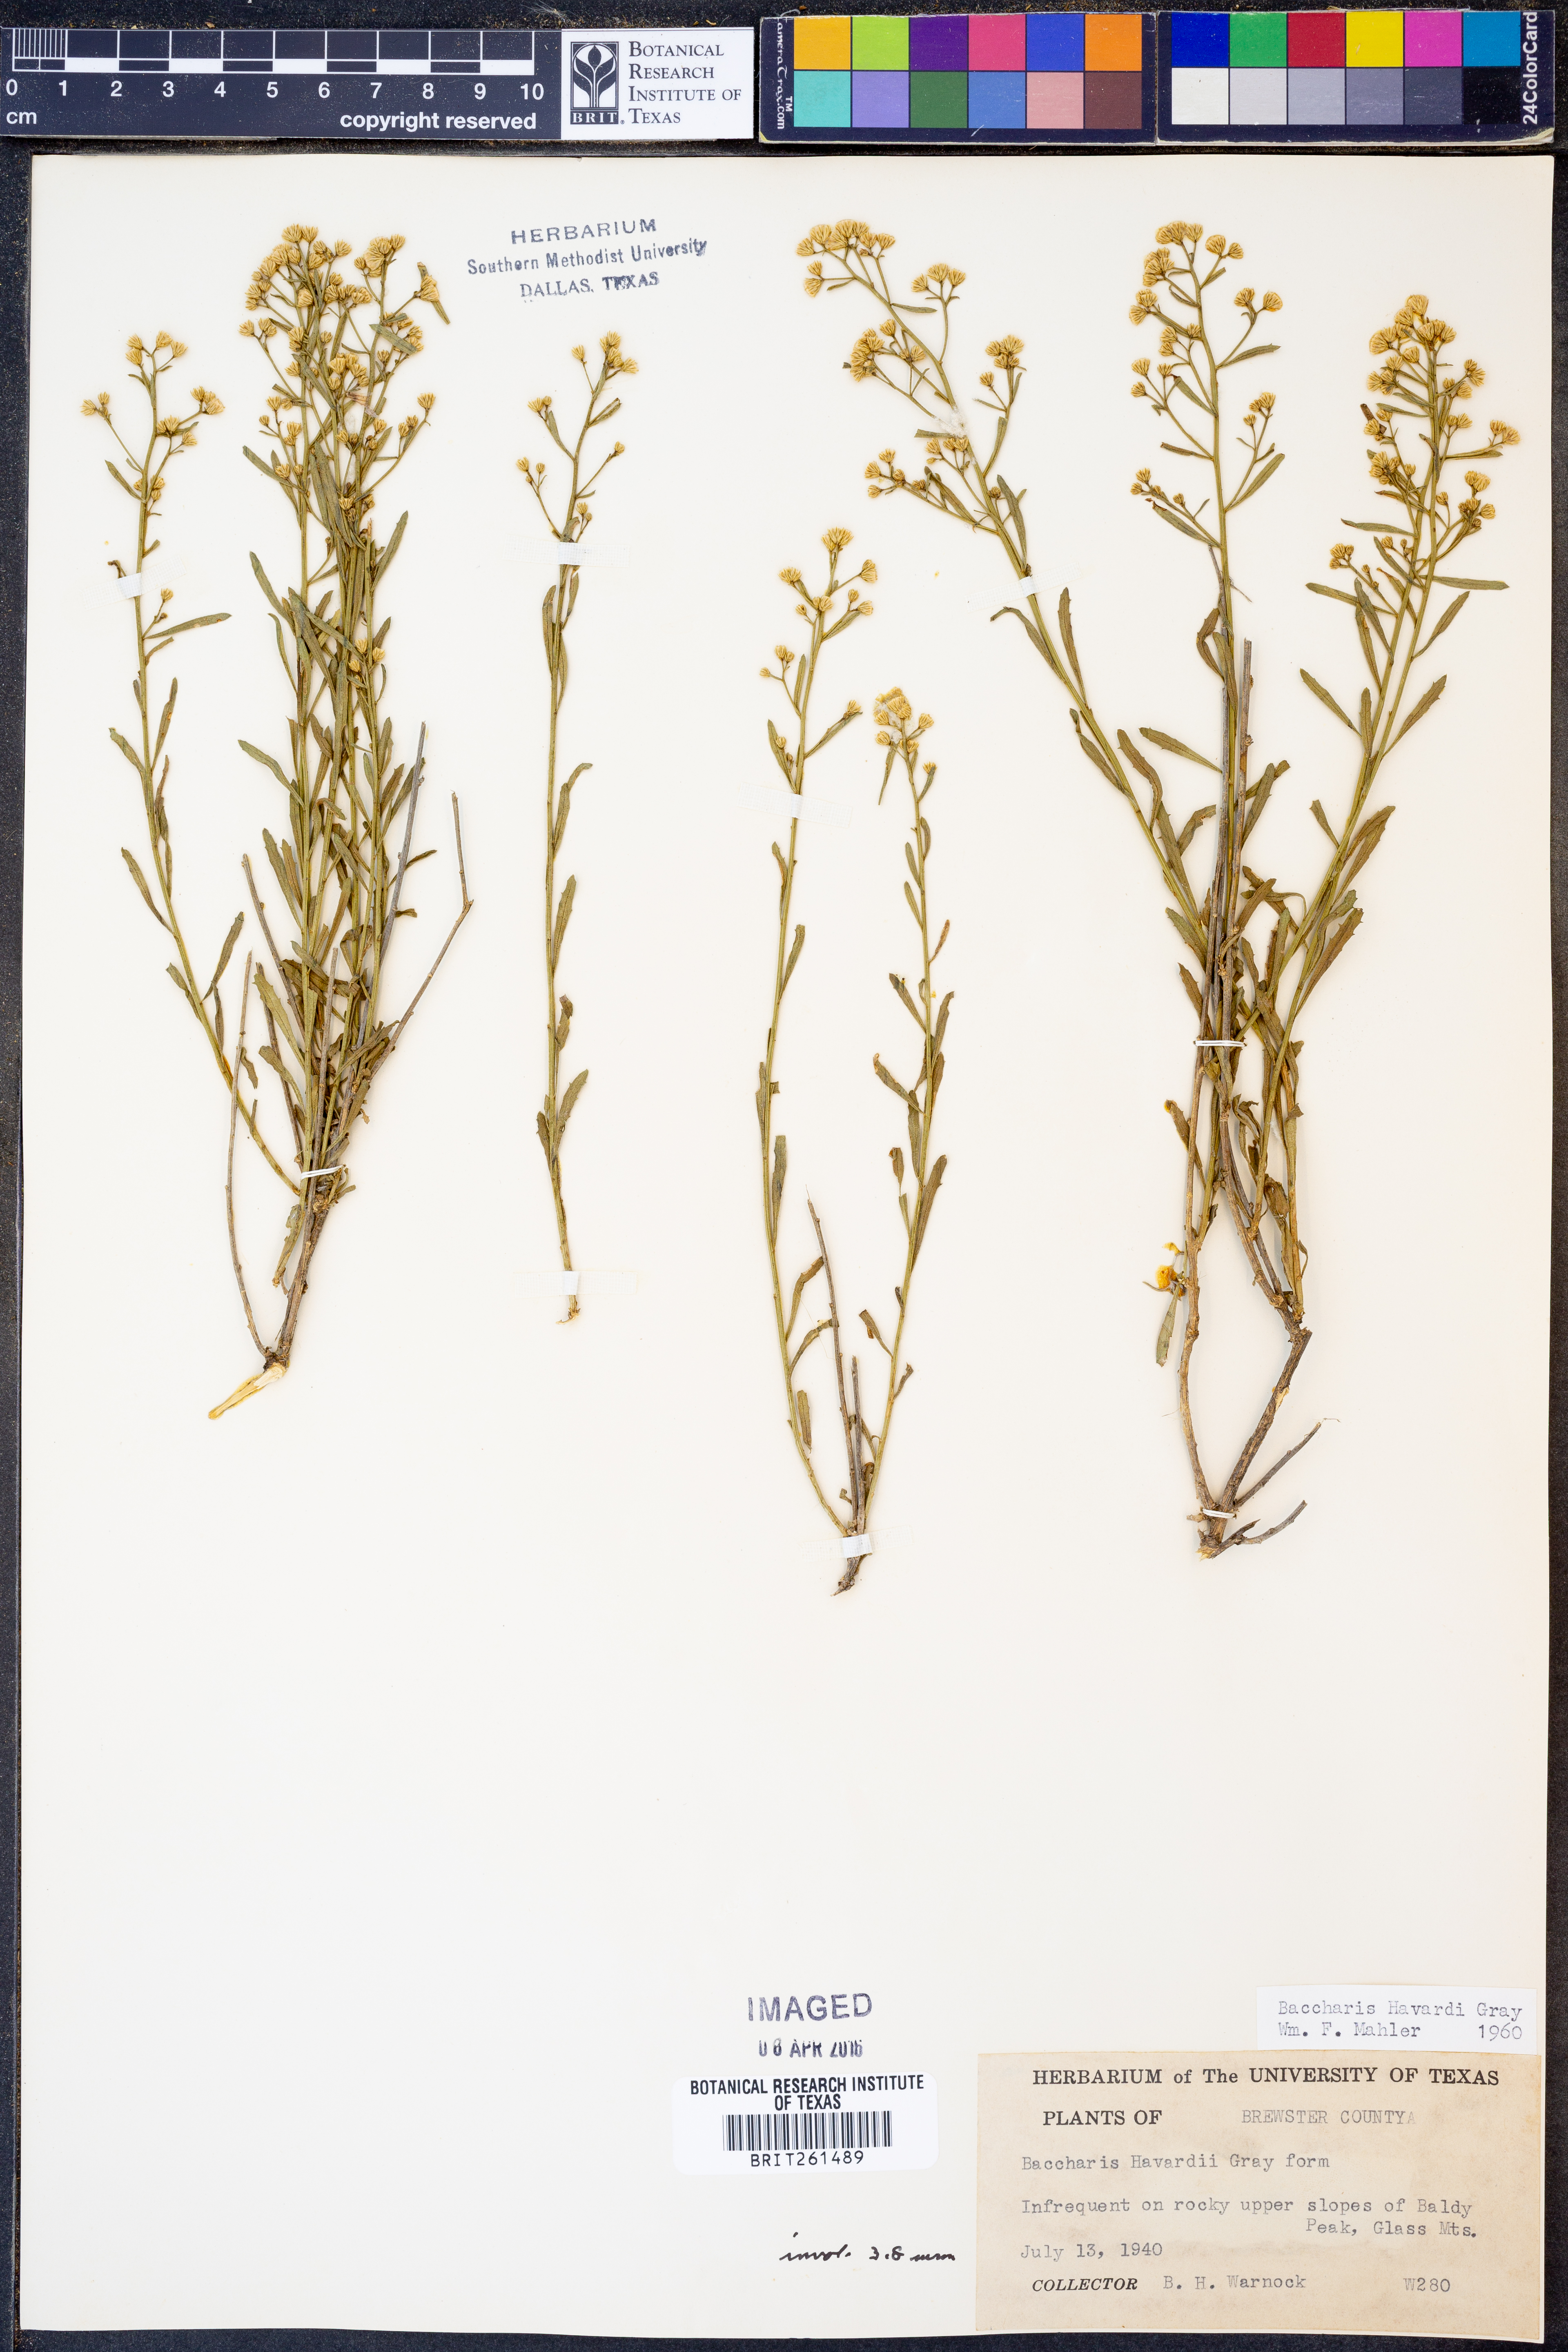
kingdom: Plantae
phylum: Tracheophyta
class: Magnoliopsida
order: Asterales
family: Asteraceae
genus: Baccharis
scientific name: Baccharis havardii
